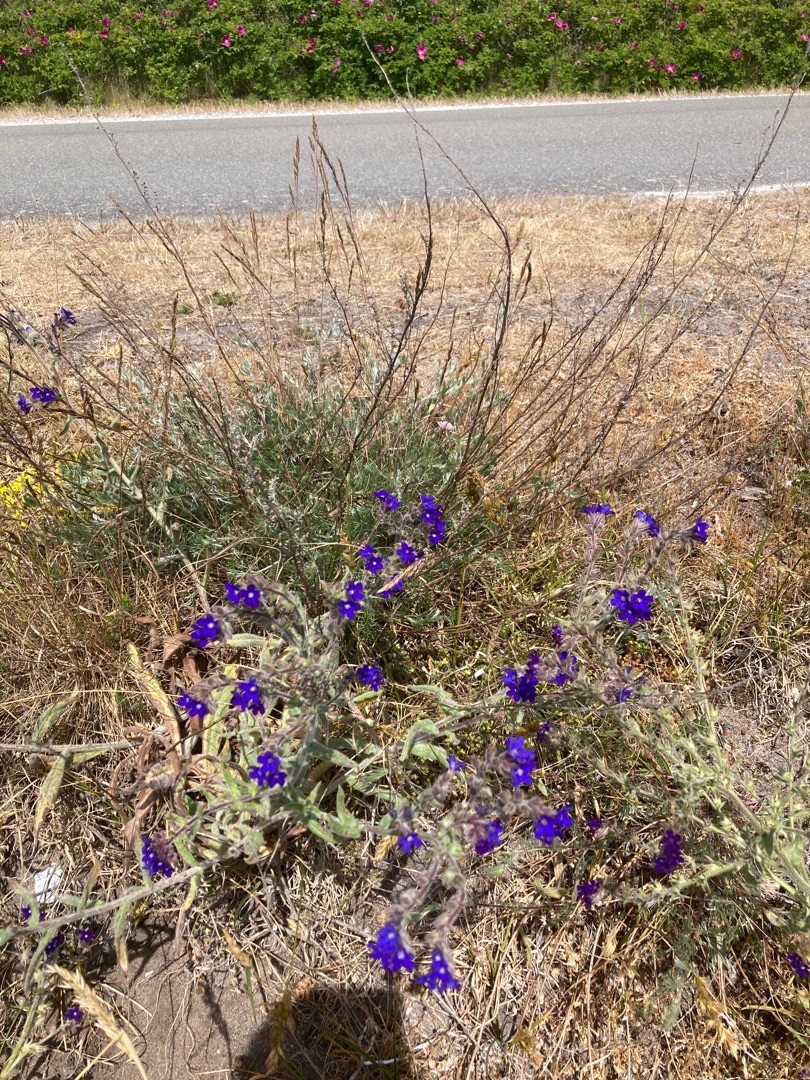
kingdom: Plantae
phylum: Tracheophyta
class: Magnoliopsida
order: Boraginales
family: Boraginaceae
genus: Anchusa
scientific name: Anchusa officinalis
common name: Læge-oksetunge
